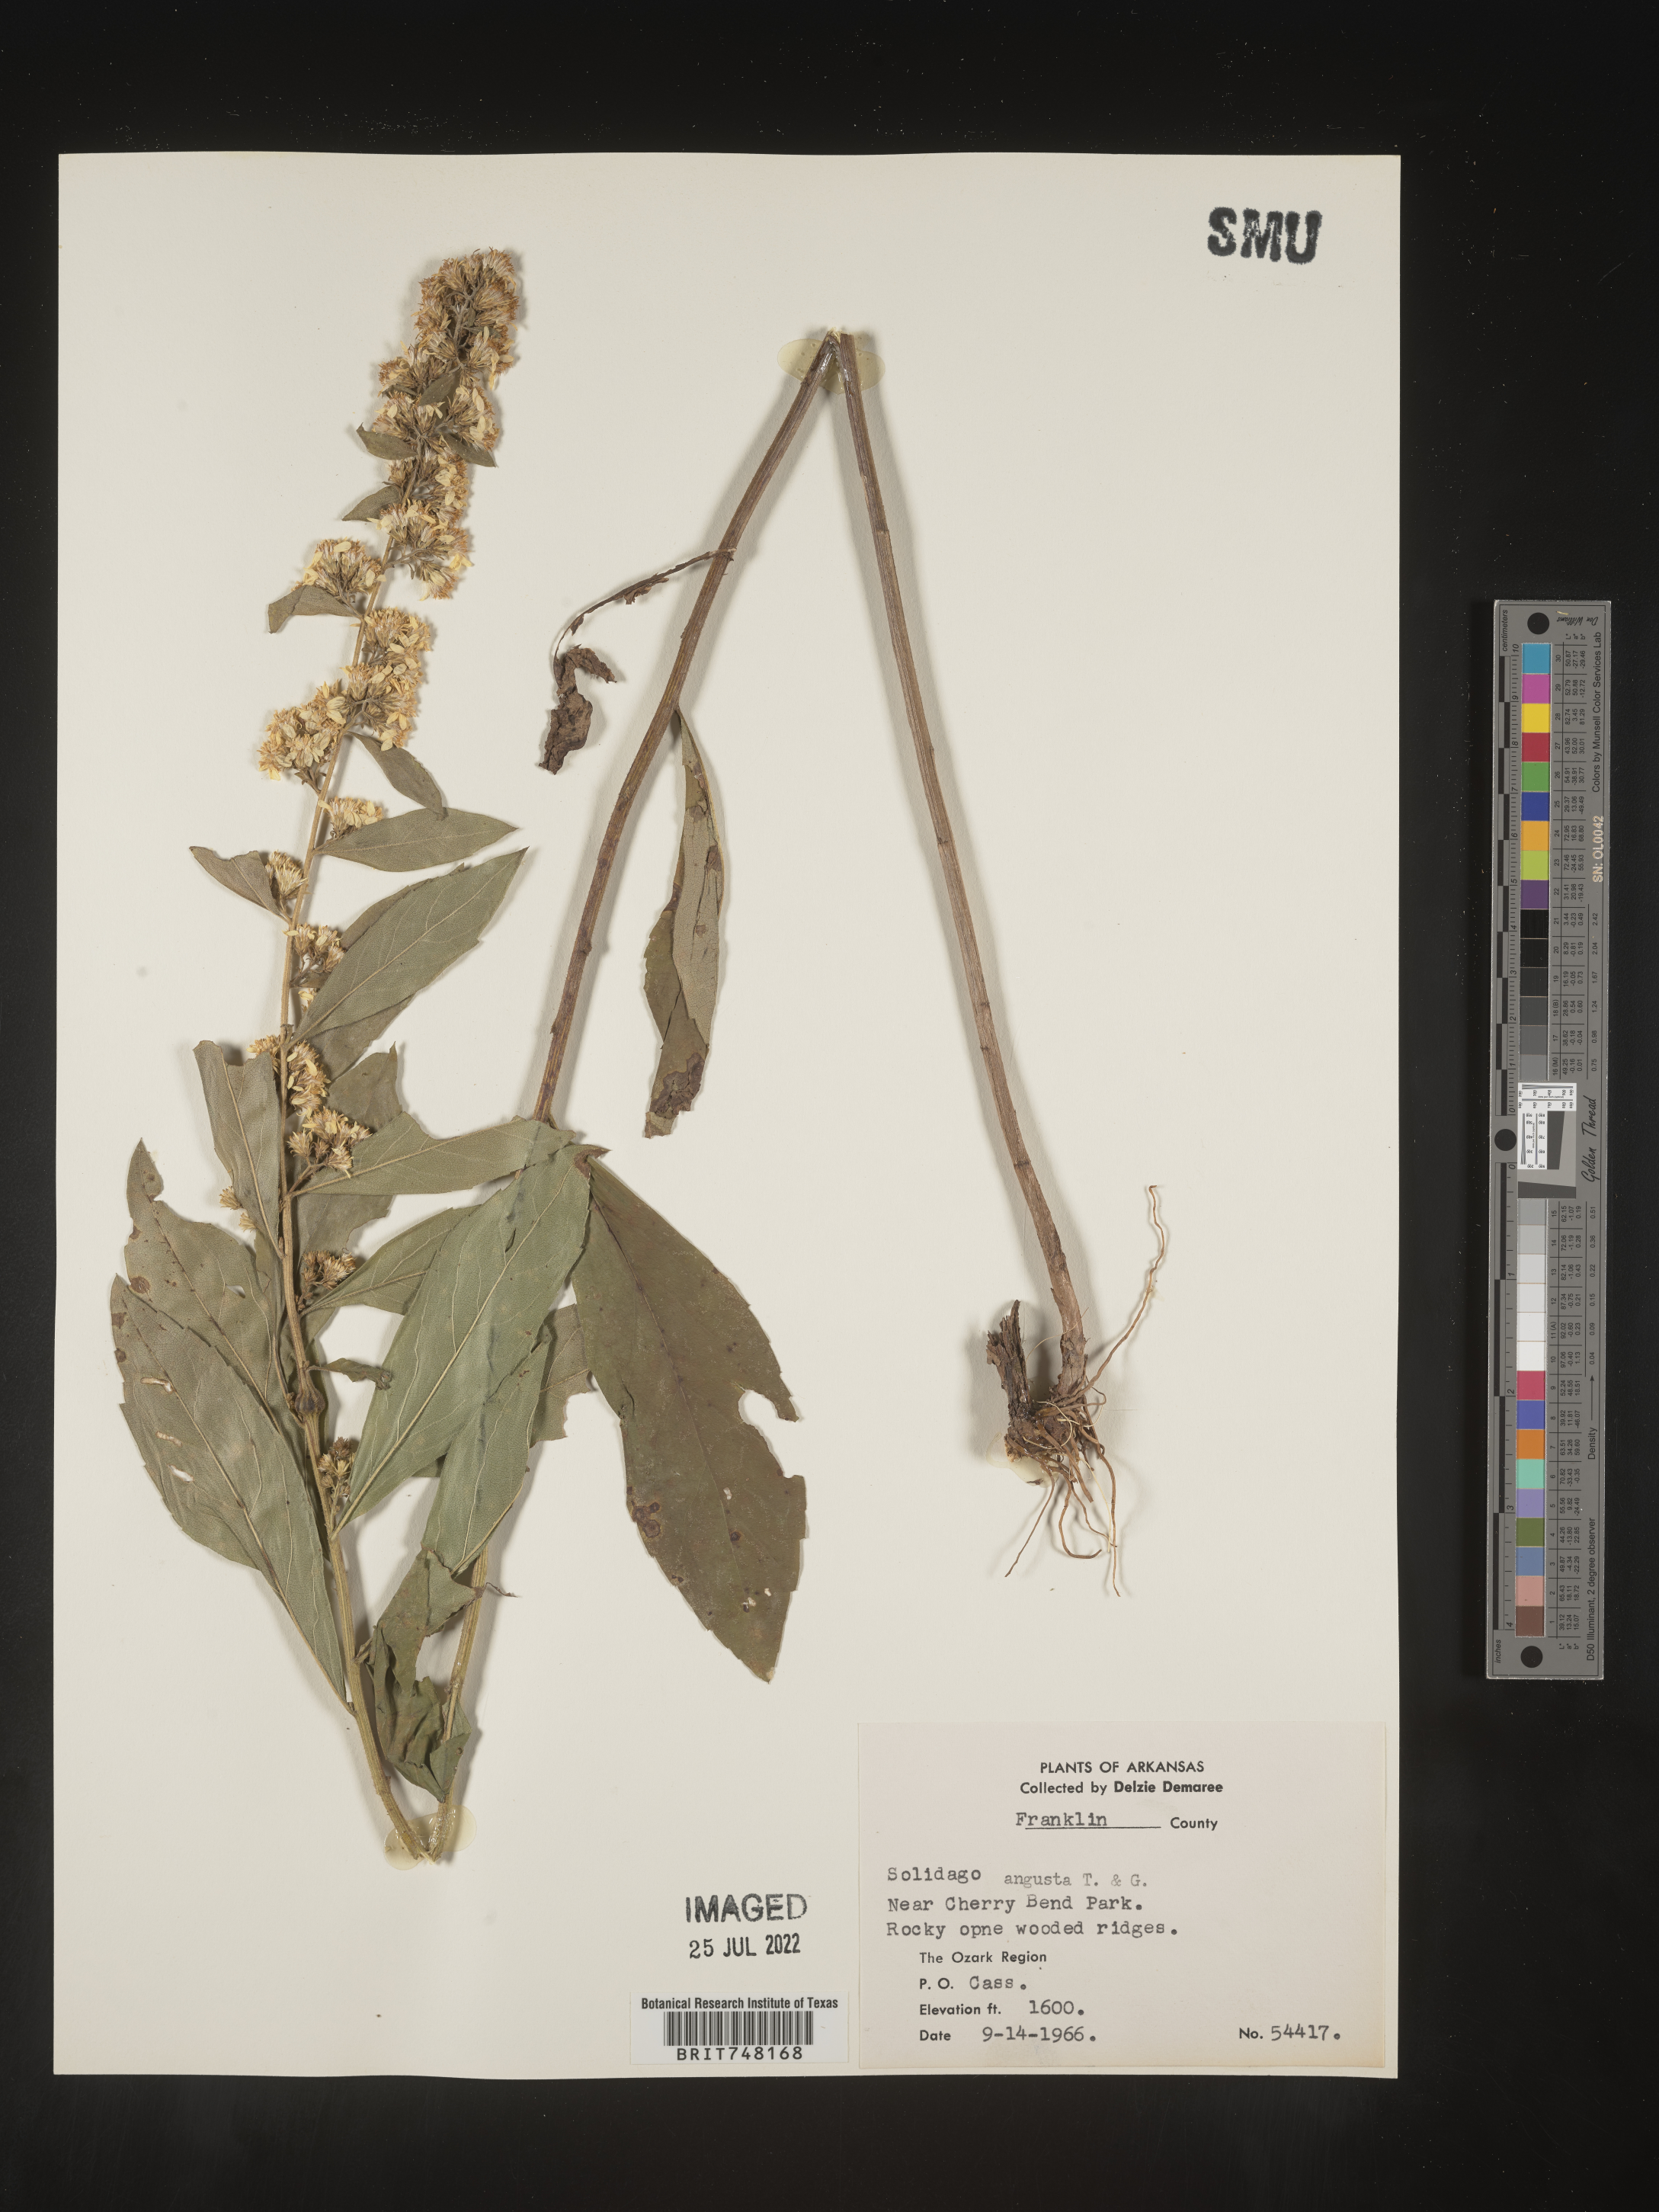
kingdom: Plantae
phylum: Tracheophyta
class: Magnoliopsida
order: Asterales
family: Asteraceae
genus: Solidago
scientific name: Solidago petiolaris
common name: Downy ragged goldenrod
